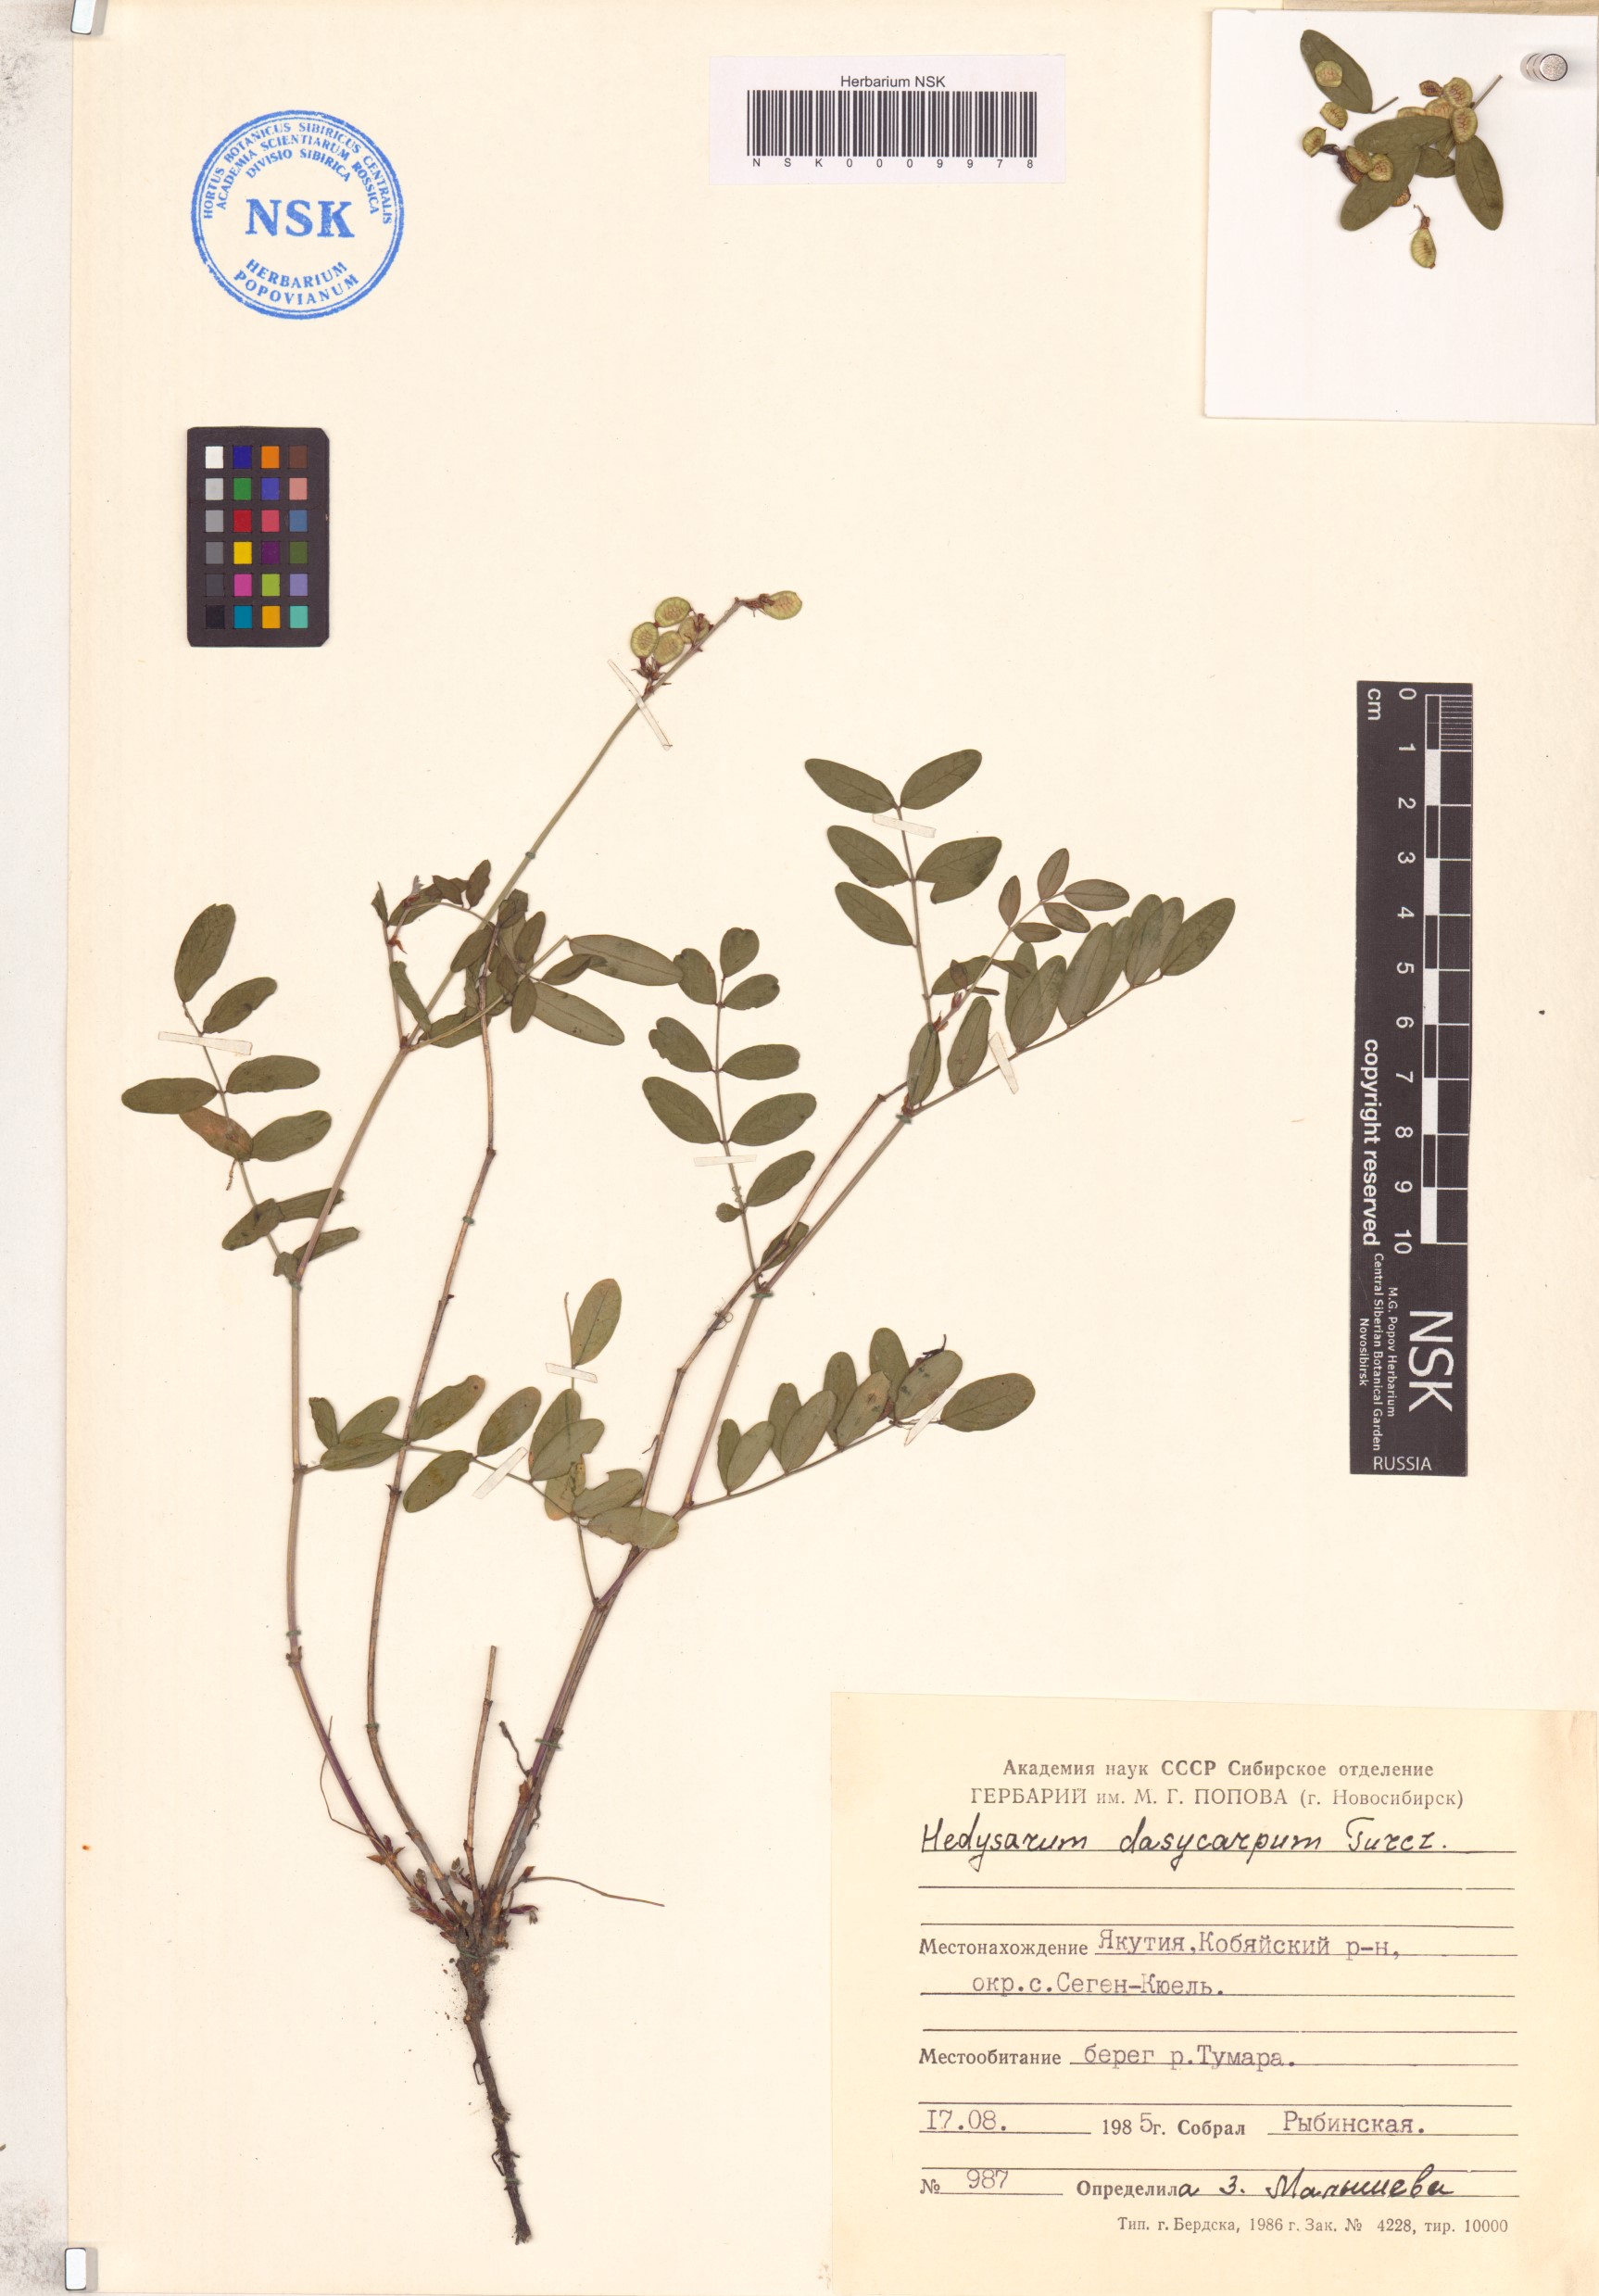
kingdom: Plantae
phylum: Tracheophyta
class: Magnoliopsida
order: Fabales
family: Fabaceae
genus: Hedysarum
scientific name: Hedysarum dasycarpum
